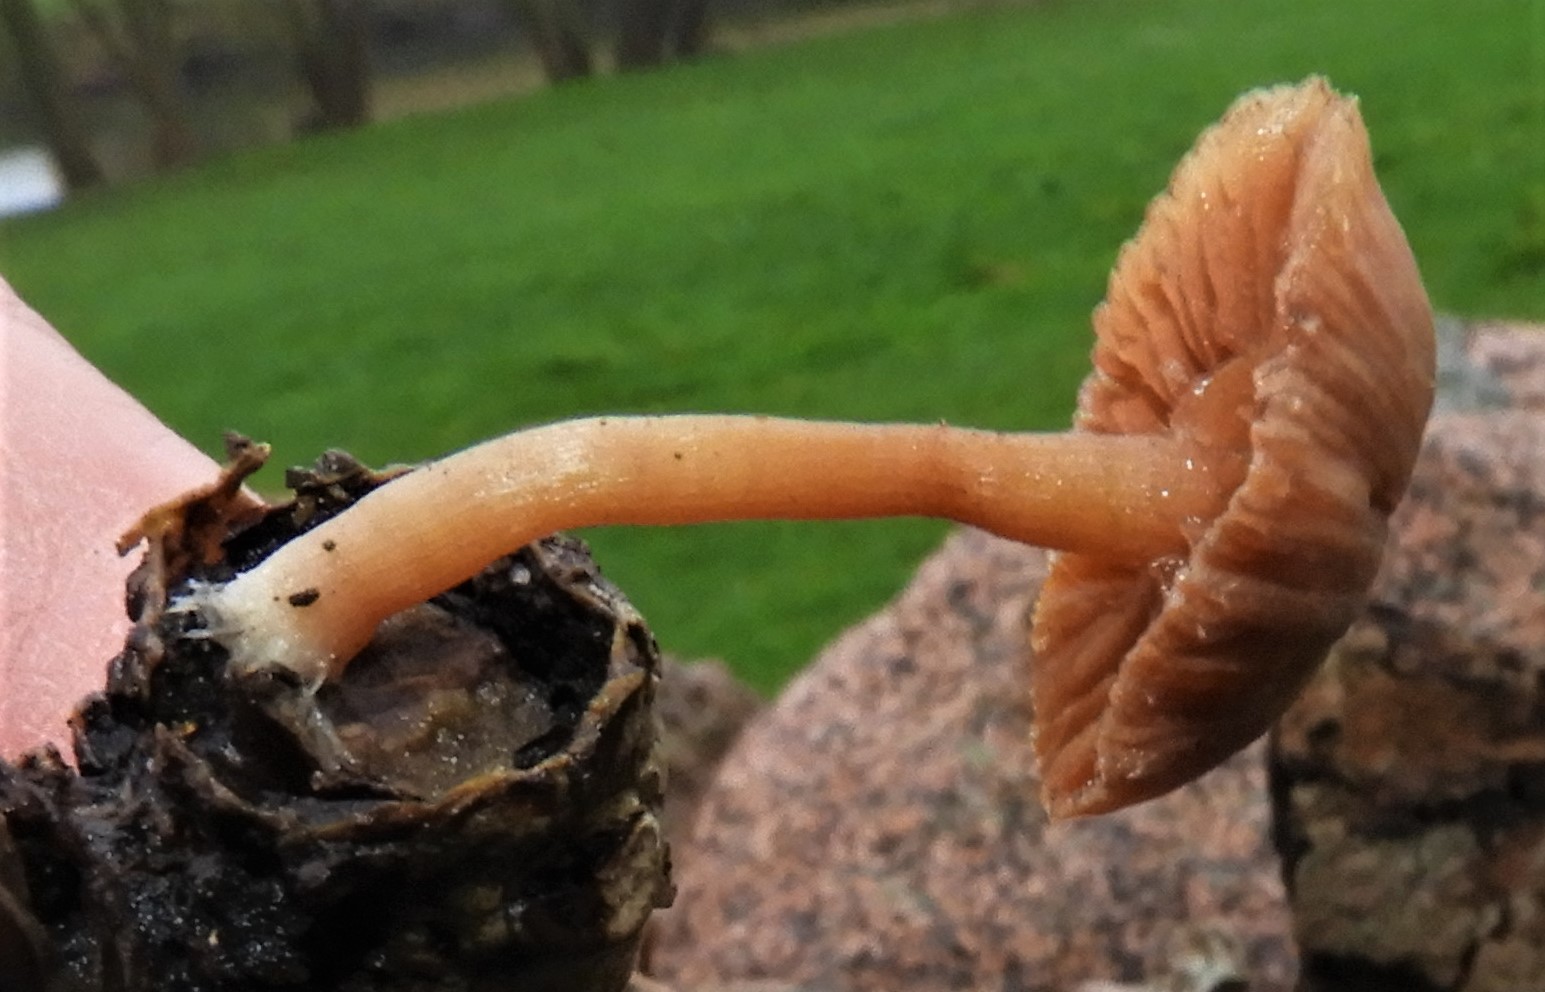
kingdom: Fungi
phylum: Basidiomycota
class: Agaricomycetes
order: Agaricales
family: Tubariaceae
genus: Tubaria
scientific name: Tubaria furfuracea
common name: kliddet fnughat
